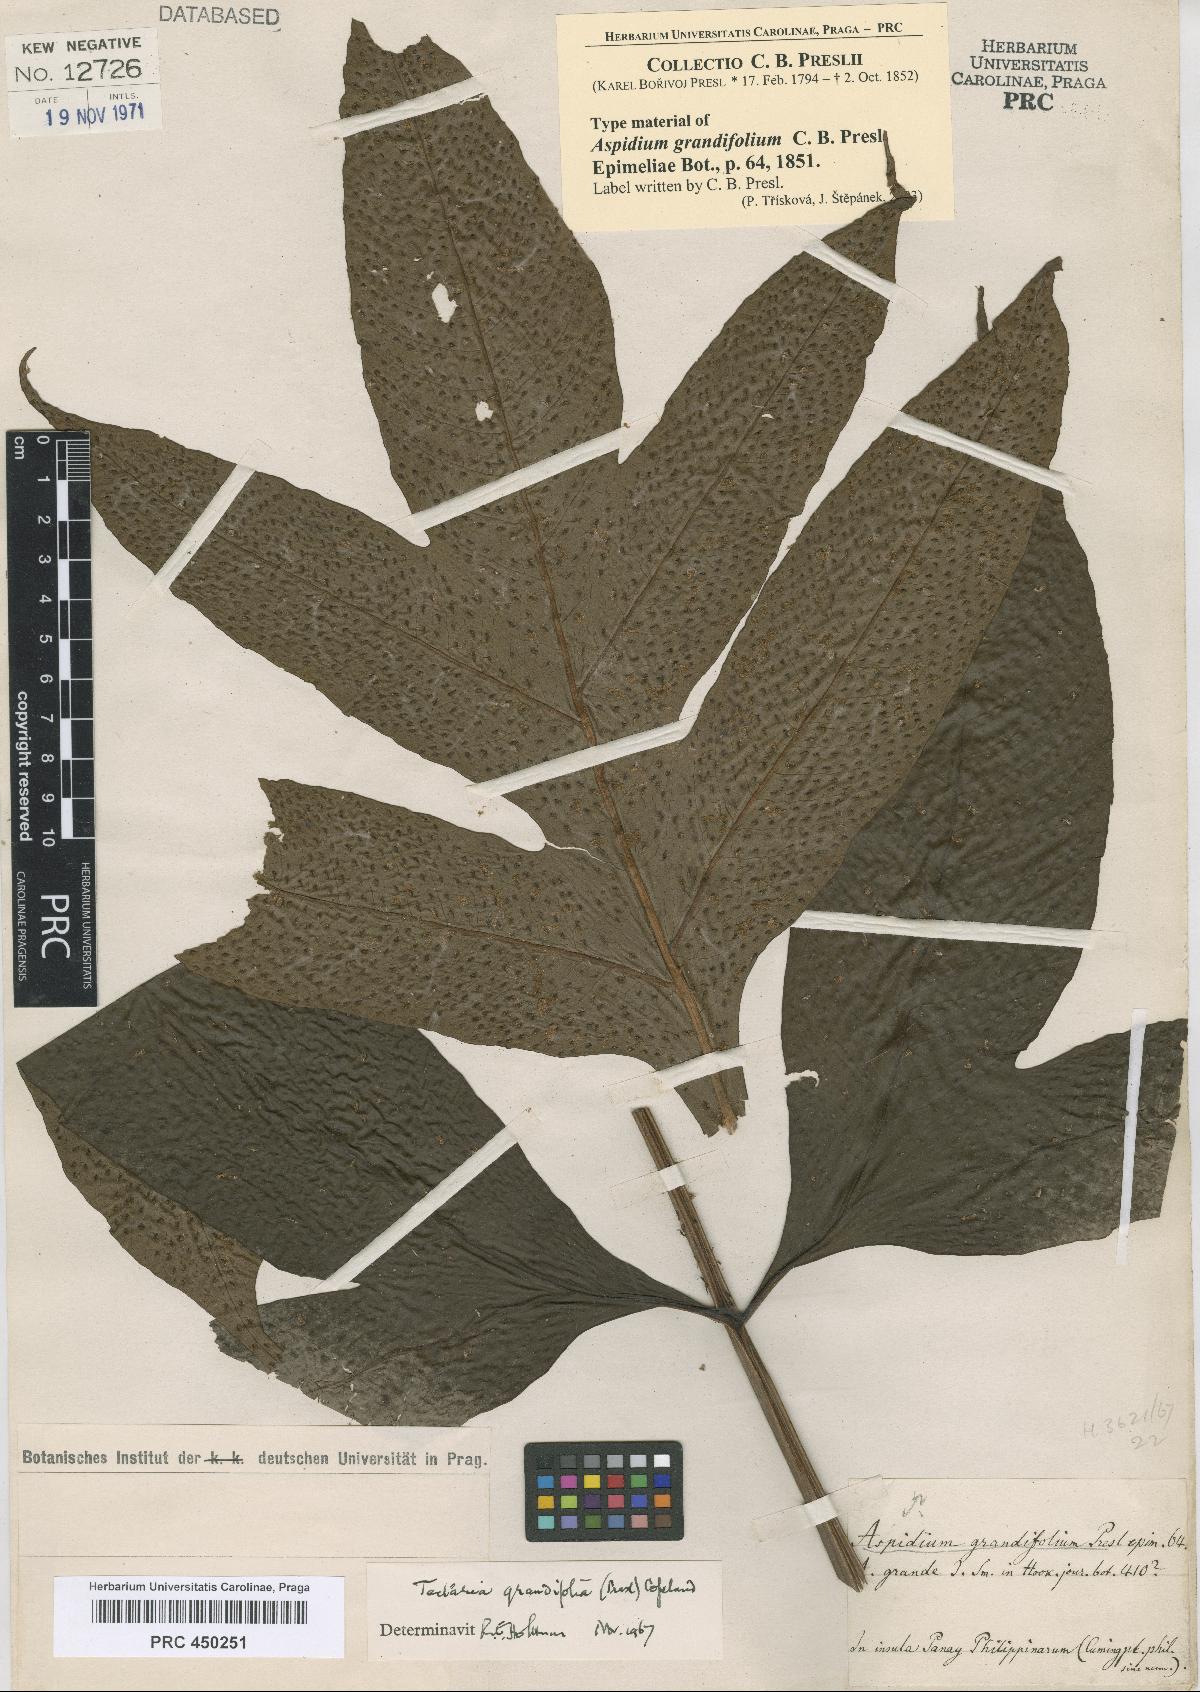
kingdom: Plantae
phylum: Tracheophyta
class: Polypodiopsida
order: Polypodiales
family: Tectariaceae
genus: Tectaria
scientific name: Tectaria crenata
